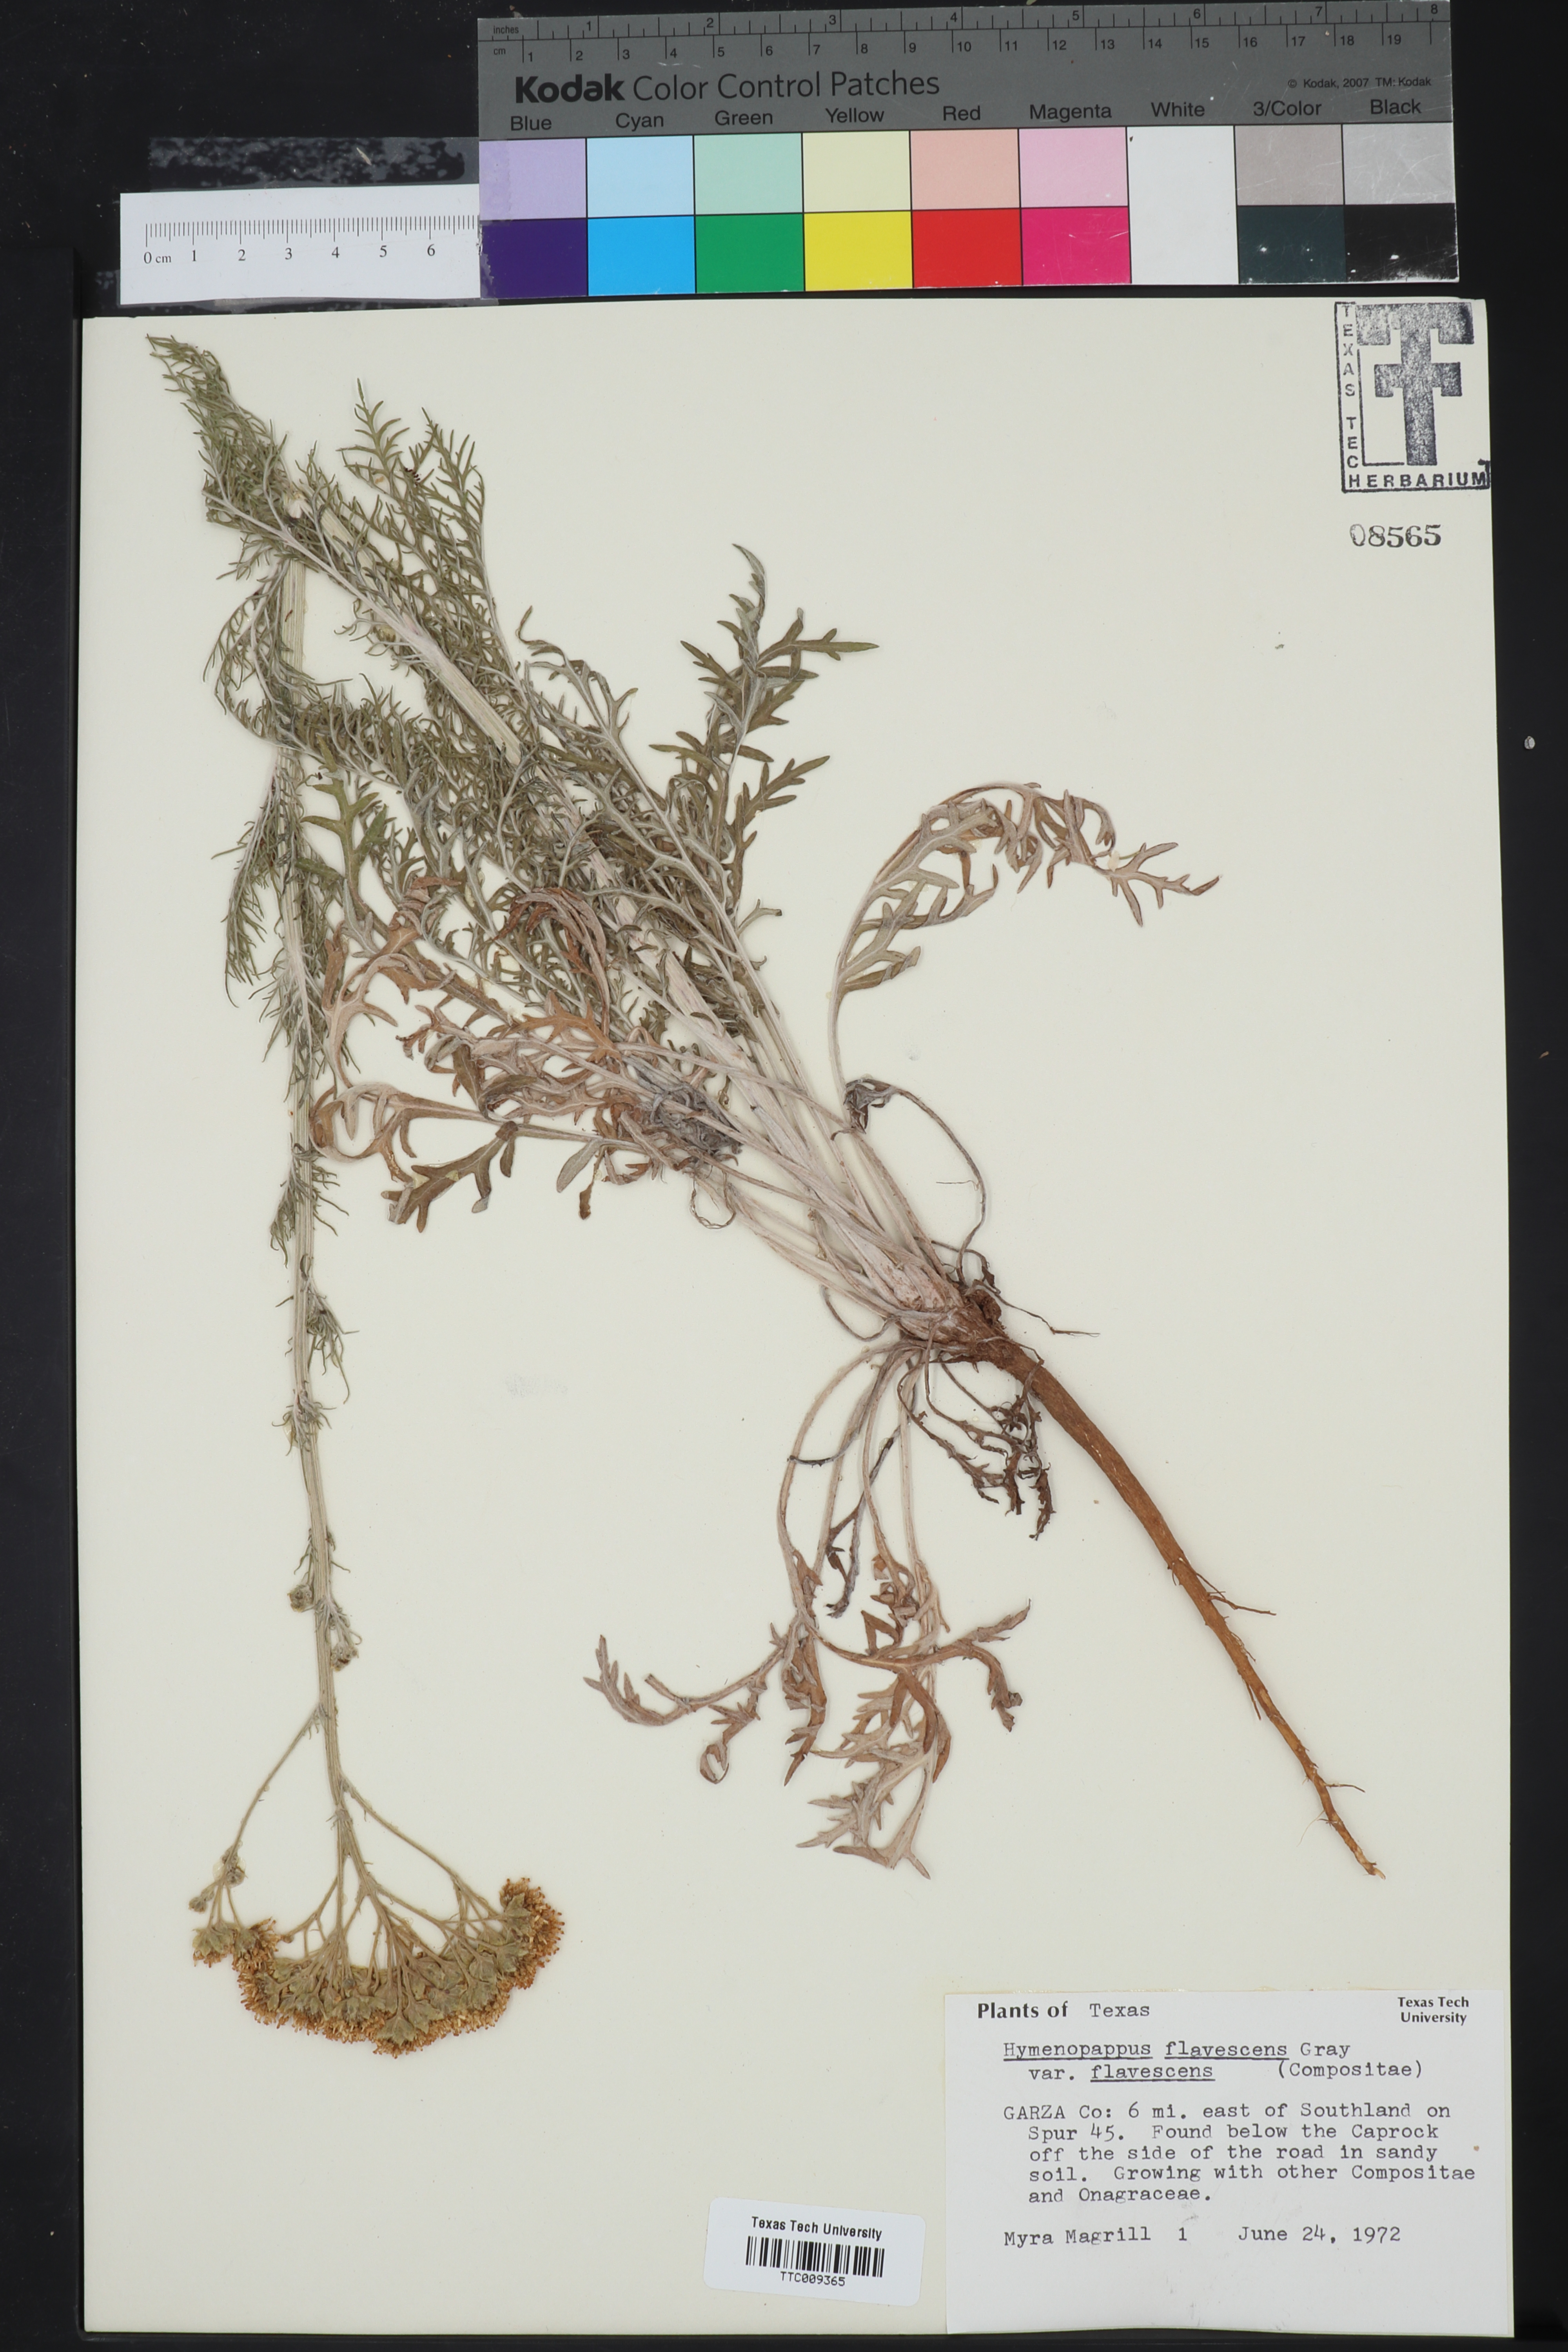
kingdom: Plantae
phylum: Tracheophyta
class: Magnoliopsida
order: Asterales
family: Asteraceae
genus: Hymenopappus
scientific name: Hymenopappus flavescens
